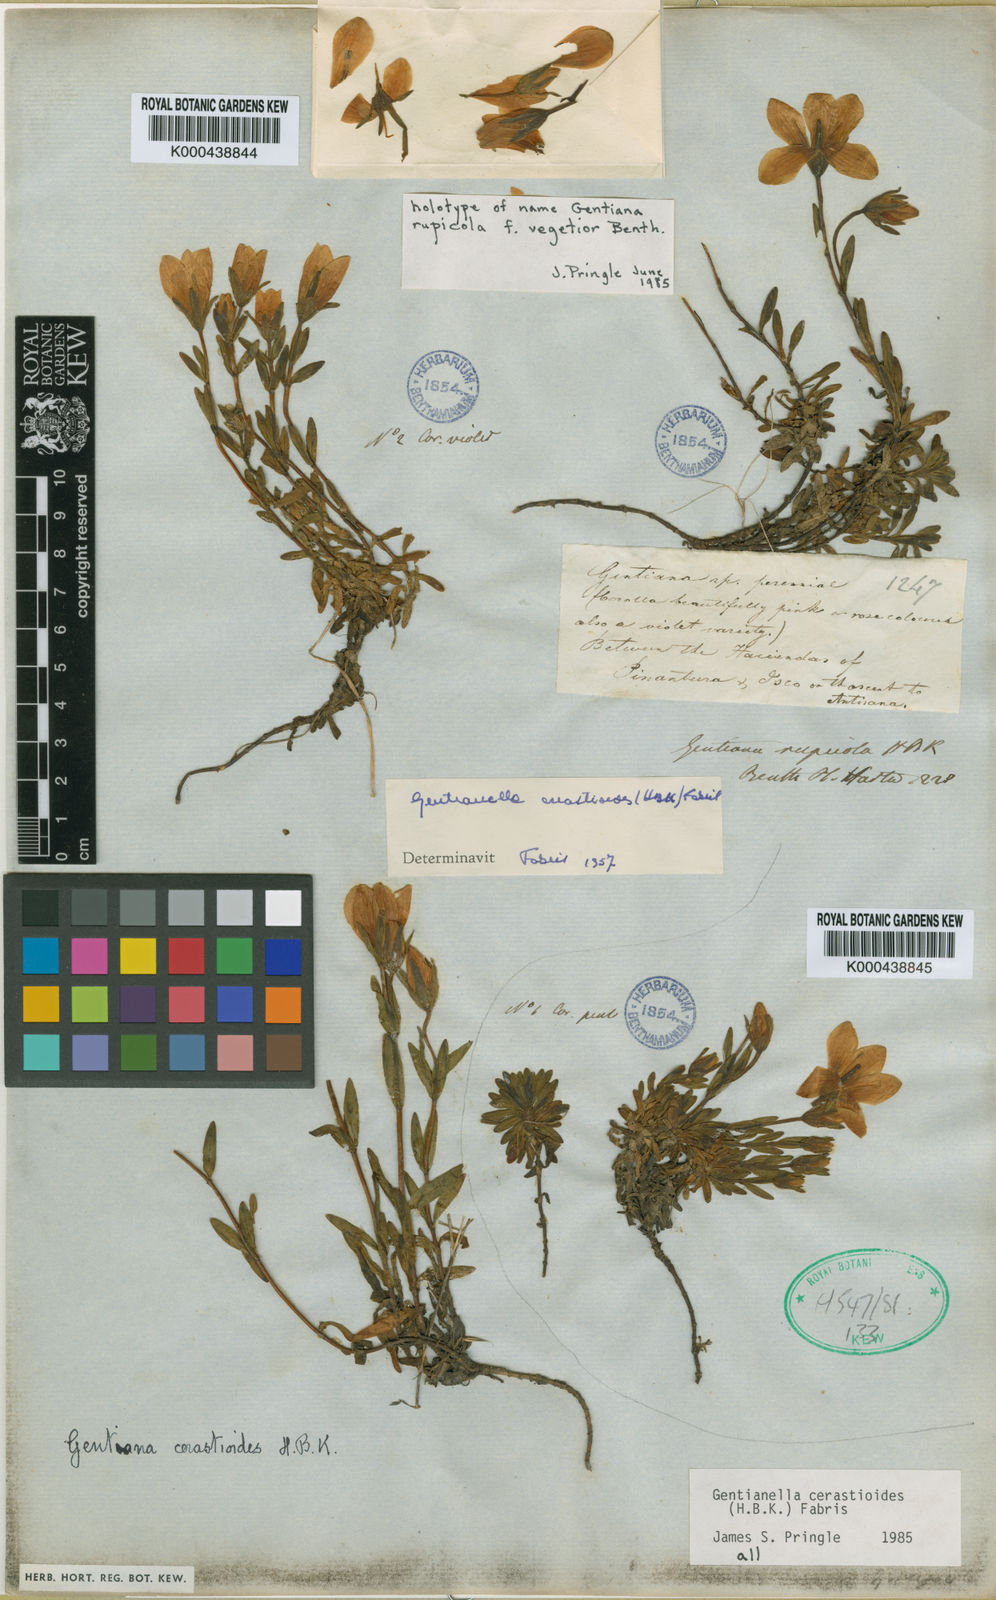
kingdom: Plantae
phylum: Tracheophyta
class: Magnoliopsida
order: Gentianales
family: Gentianaceae
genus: Gentianella
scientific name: Gentianella cerastioides
